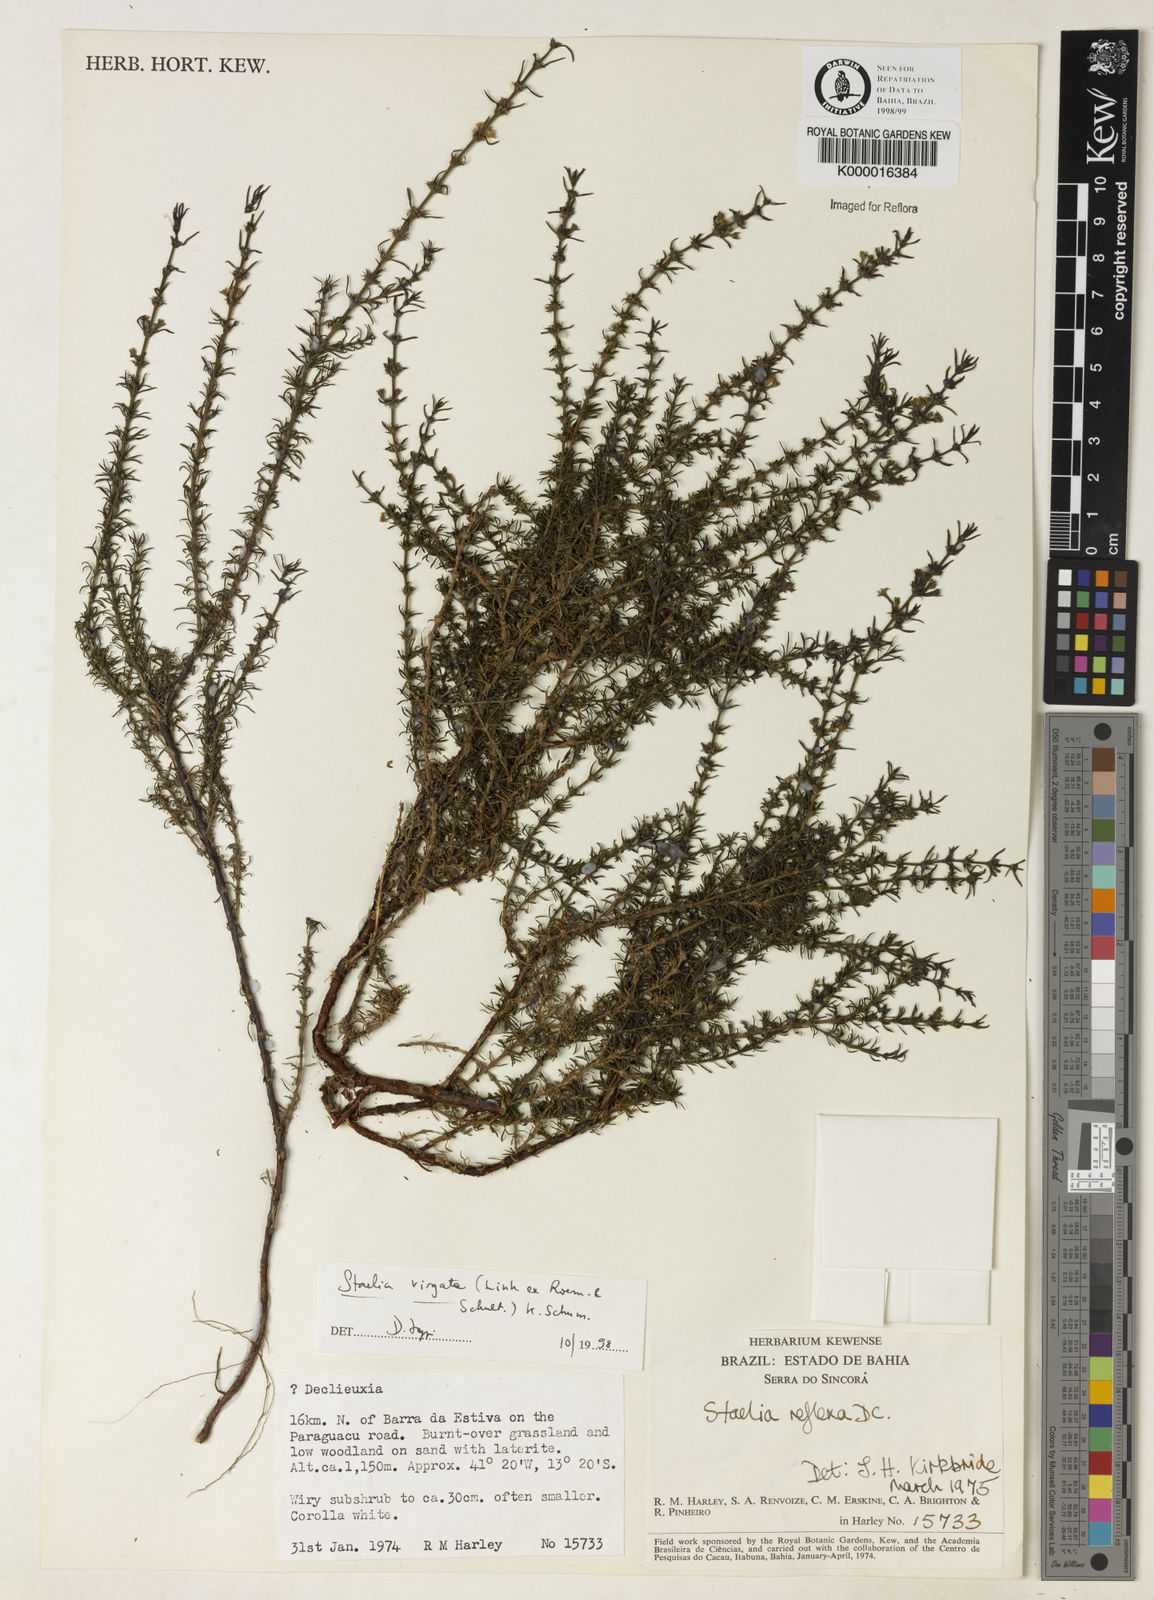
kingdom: Plantae
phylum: Tracheophyta
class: Magnoliopsida
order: Gentianales
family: Rubiaceae
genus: Staelia
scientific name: Staelia virgata
